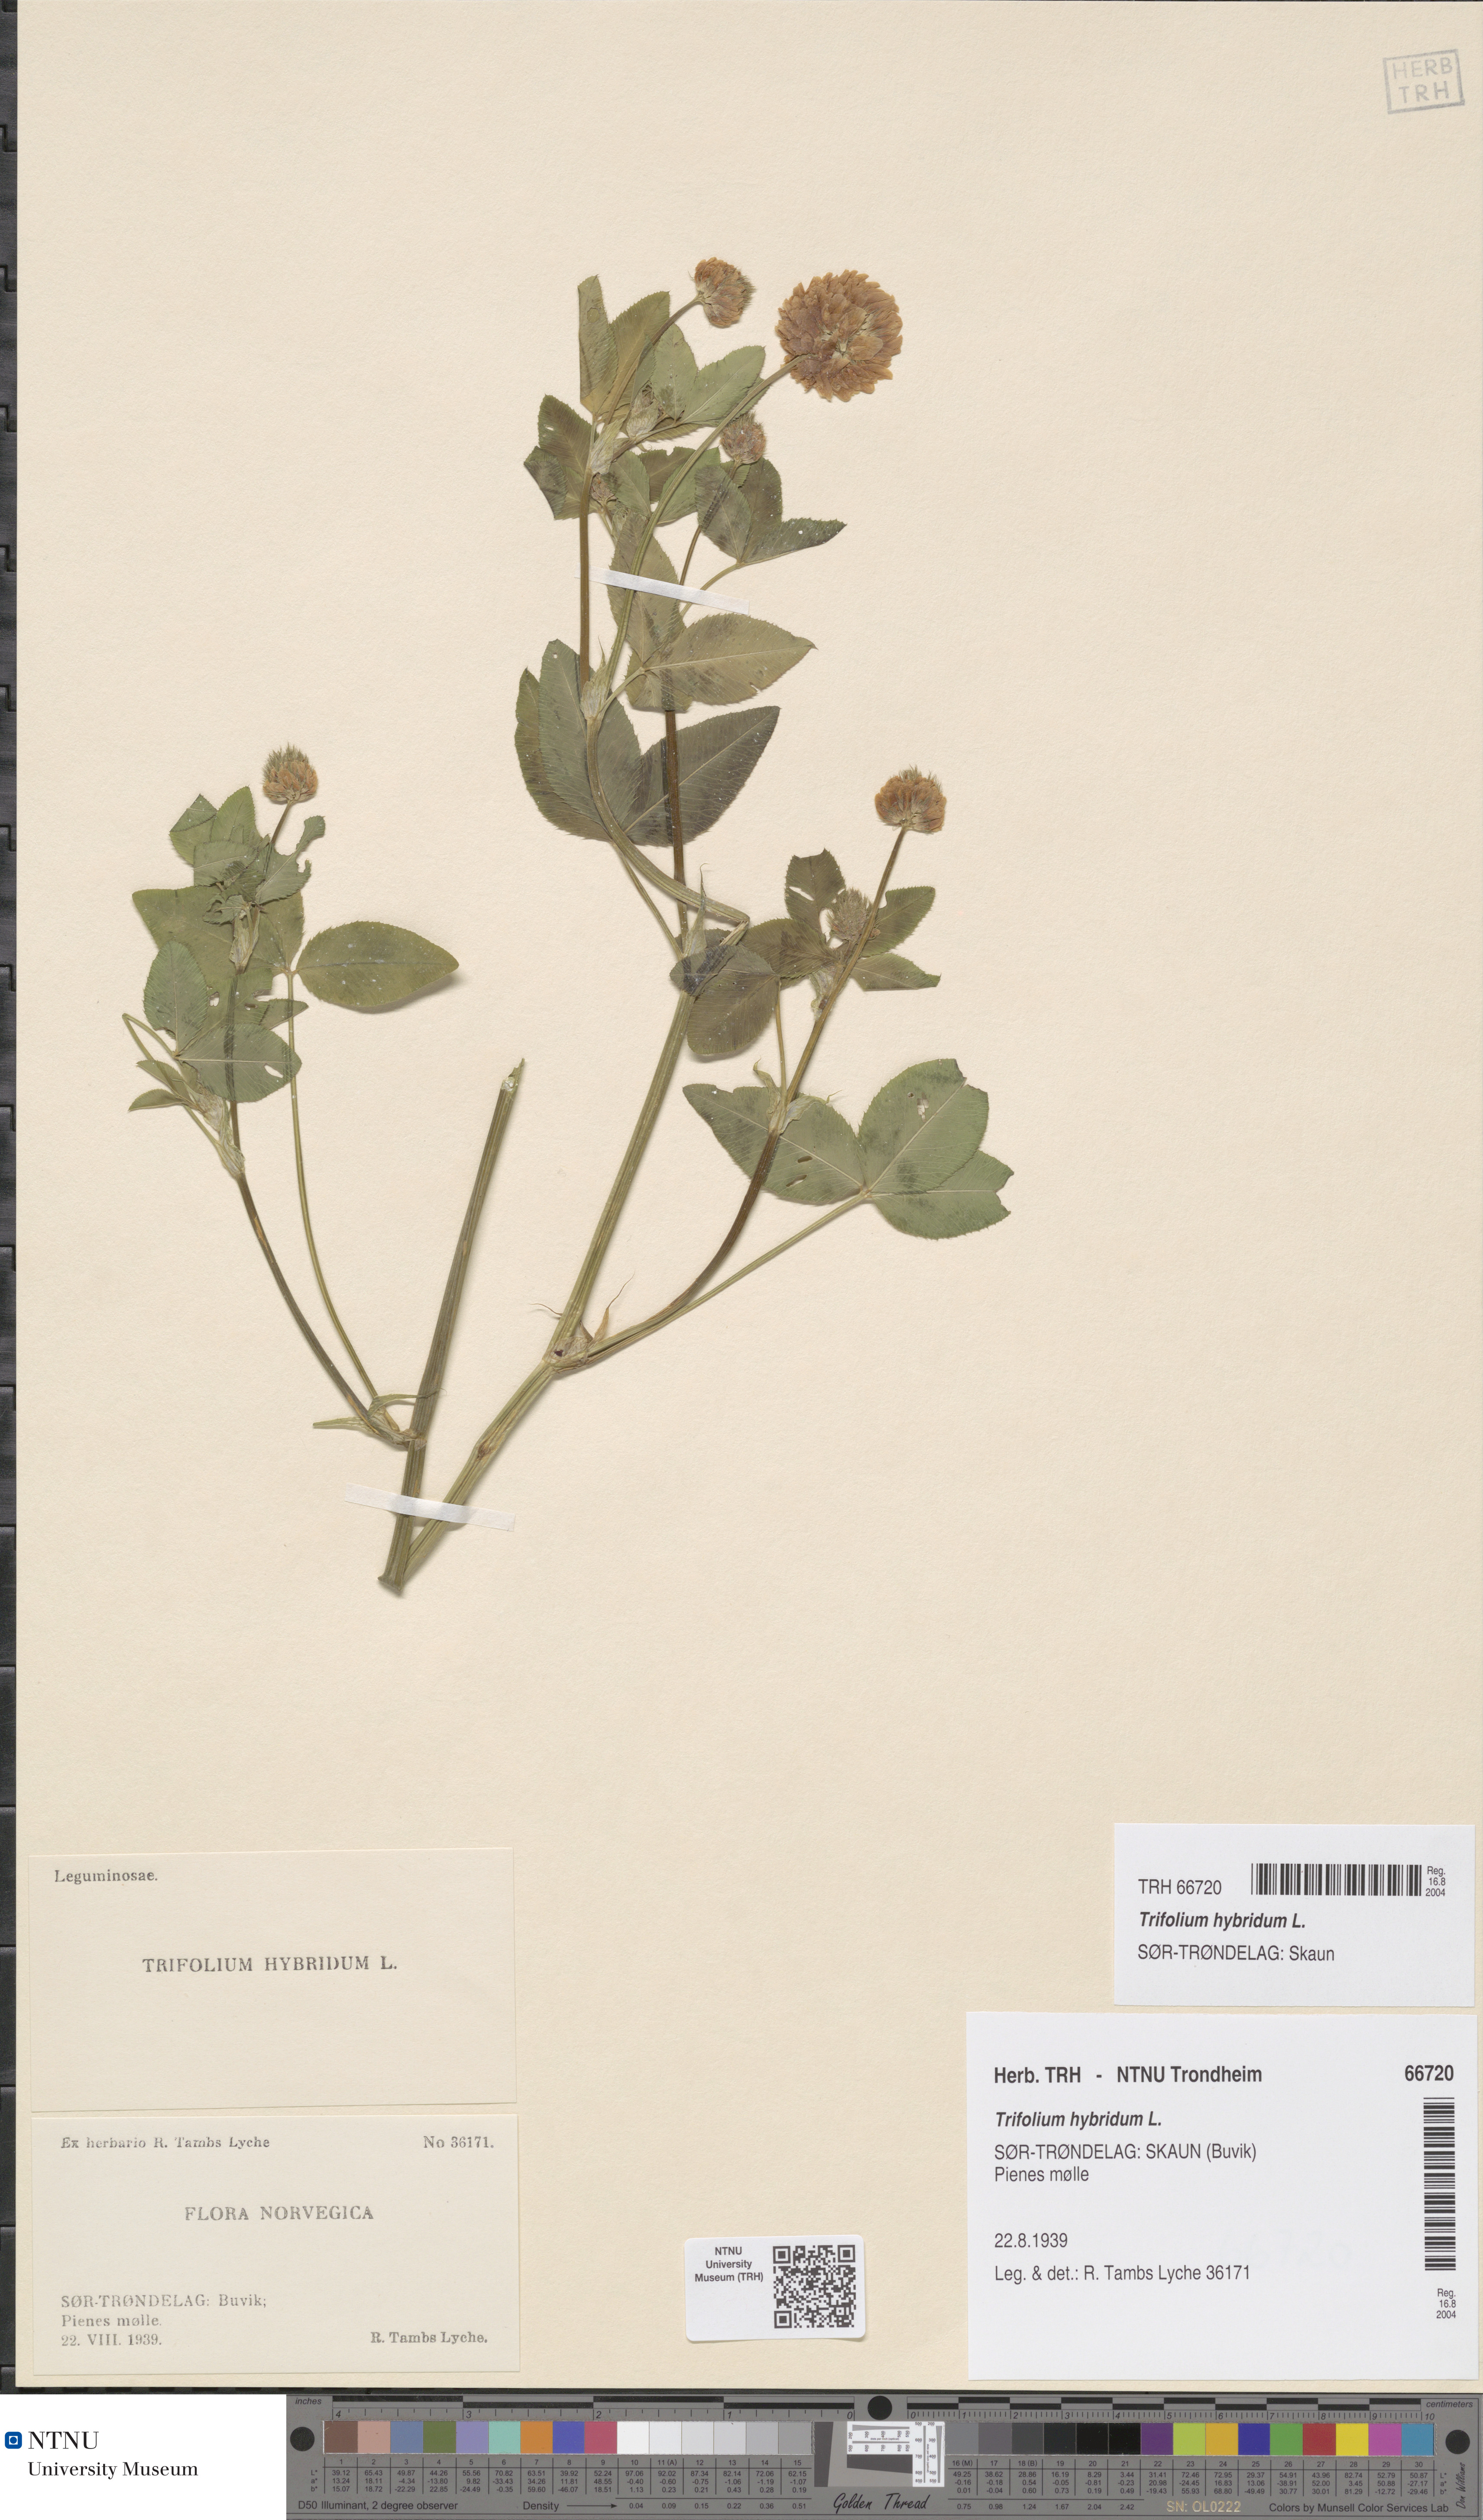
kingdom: Plantae
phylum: Tracheophyta
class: Magnoliopsida
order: Fabales
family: Fabaceae
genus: Trifolium
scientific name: Trifolium hybridum
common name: Alsike clover
